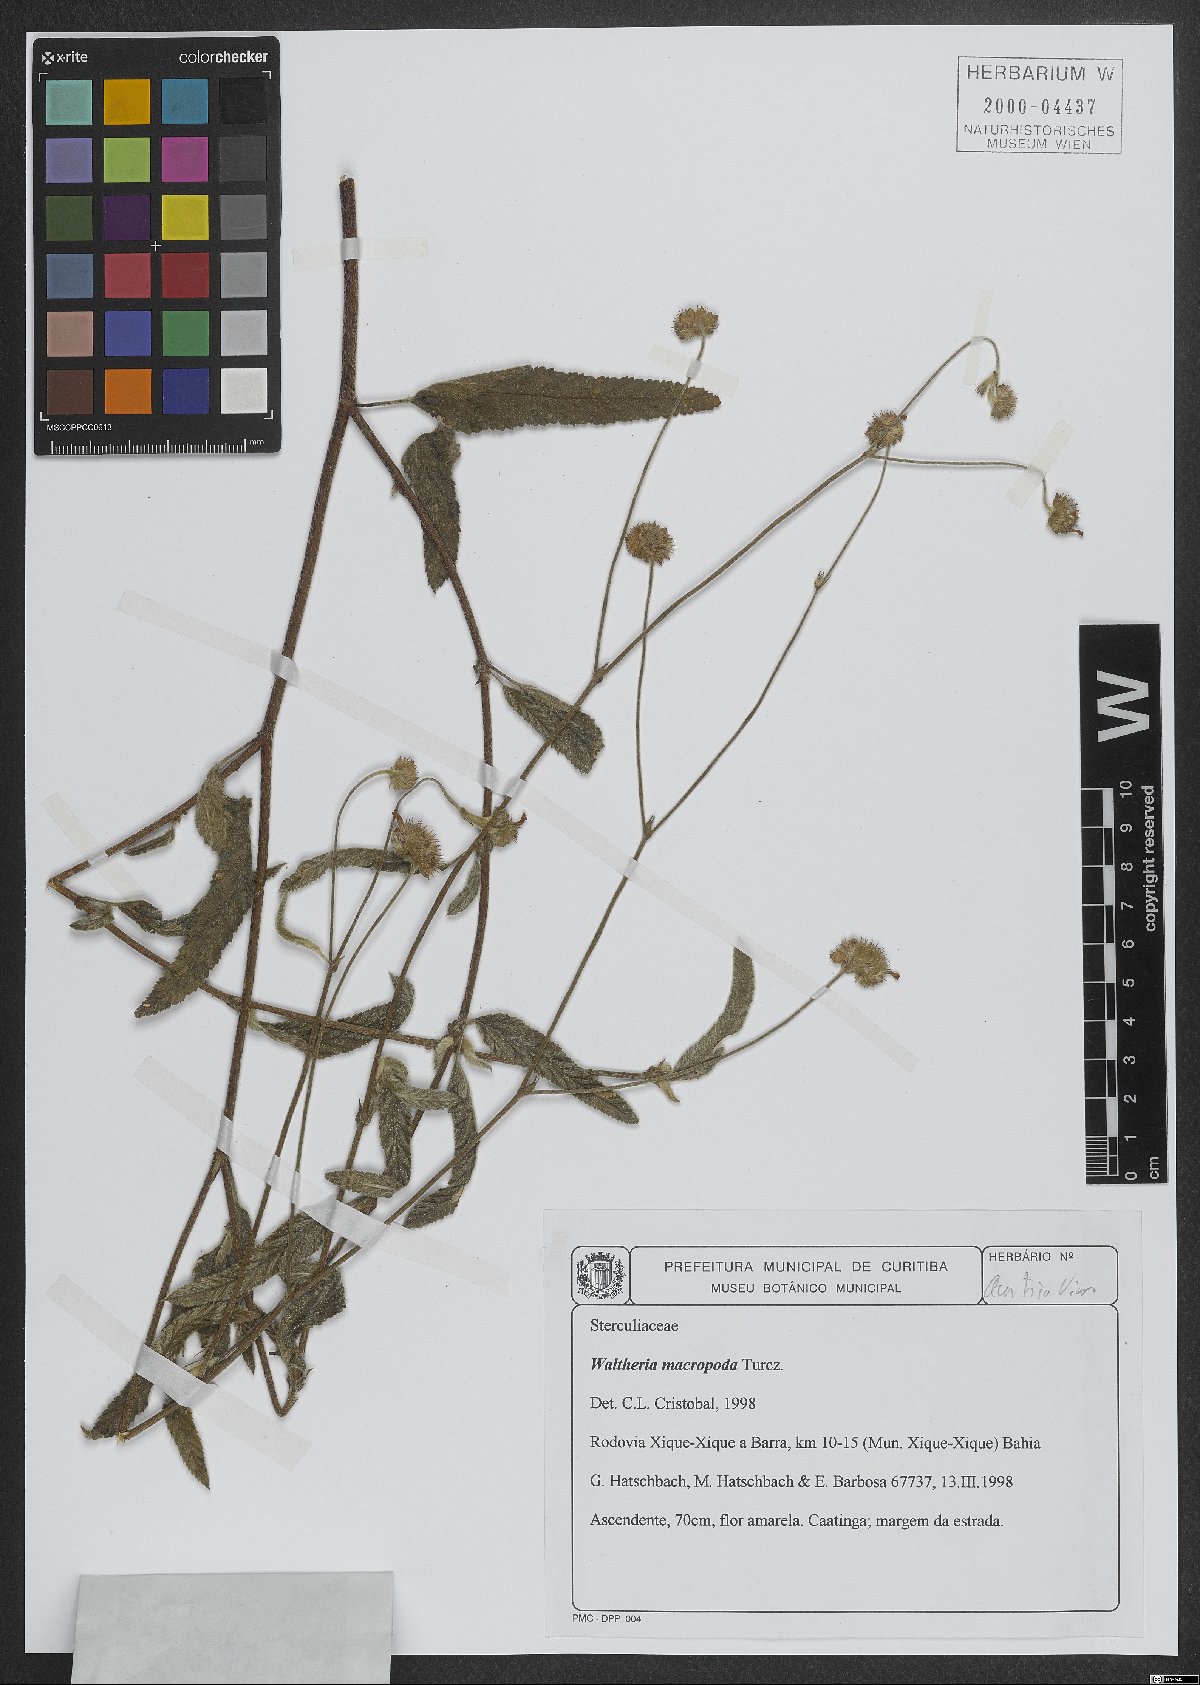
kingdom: Plantae
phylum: Tracheophyta
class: Magnoliopsida
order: Malvales
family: Malvaceae
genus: Waltheria
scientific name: Waltheria bracteosa
